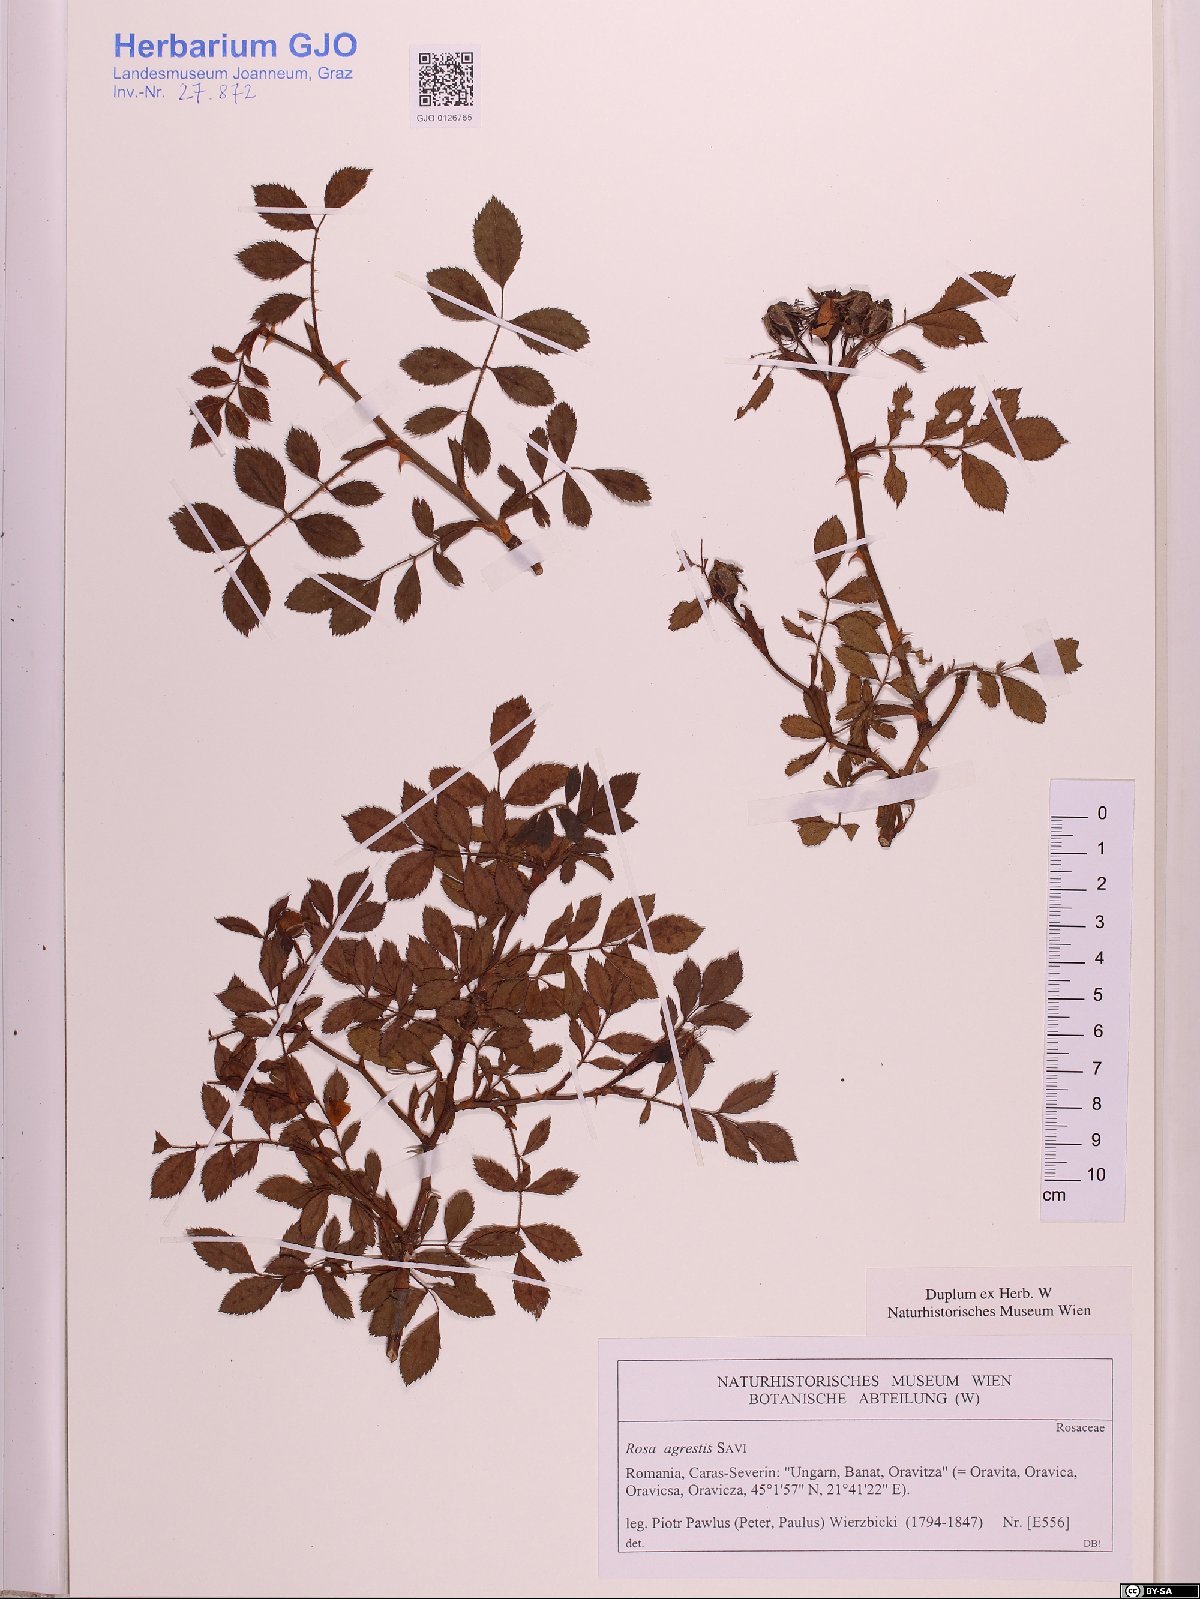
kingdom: Plantae
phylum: Tracheophyta
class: Magnoliopsida
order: Rosales
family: Rosaceae
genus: Rosa
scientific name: Rosa agrestis
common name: Fieldbriar
